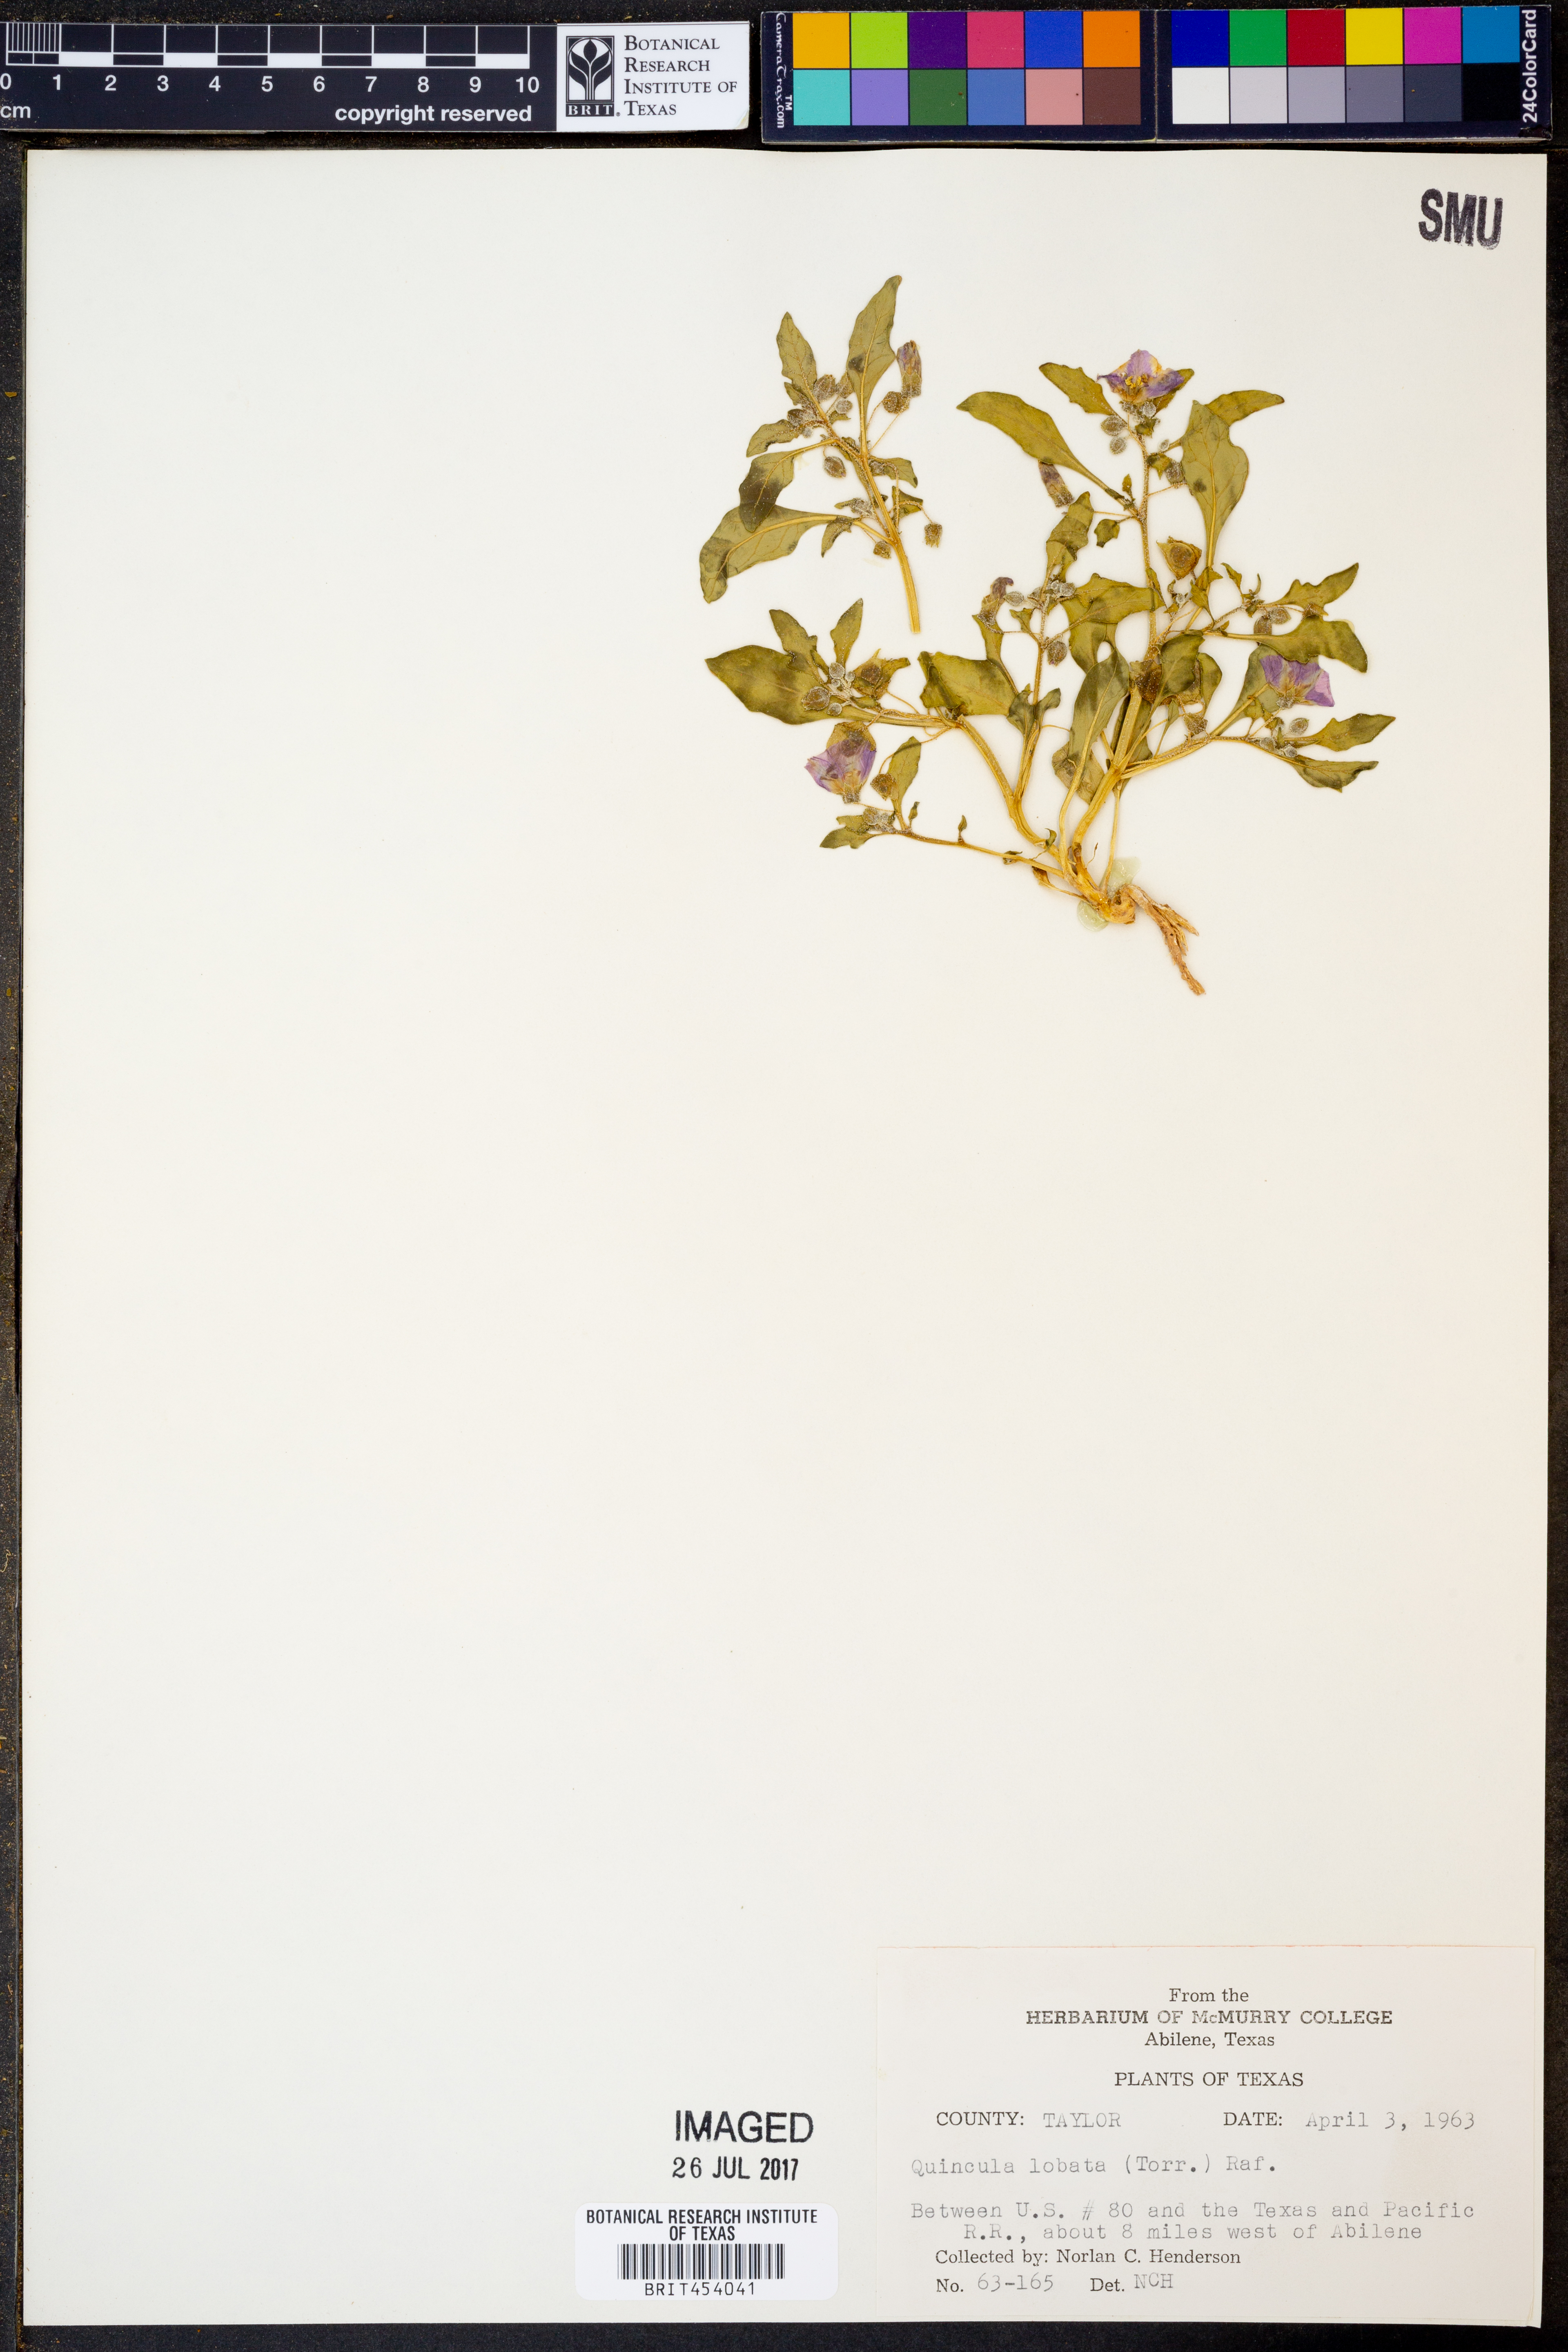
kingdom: Plantae
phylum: Tracheophyta
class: Magnoliopsida
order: Solanales
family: Solanaceae
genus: Quincula
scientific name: Quincula lobata
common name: Purple-ground-cherry
